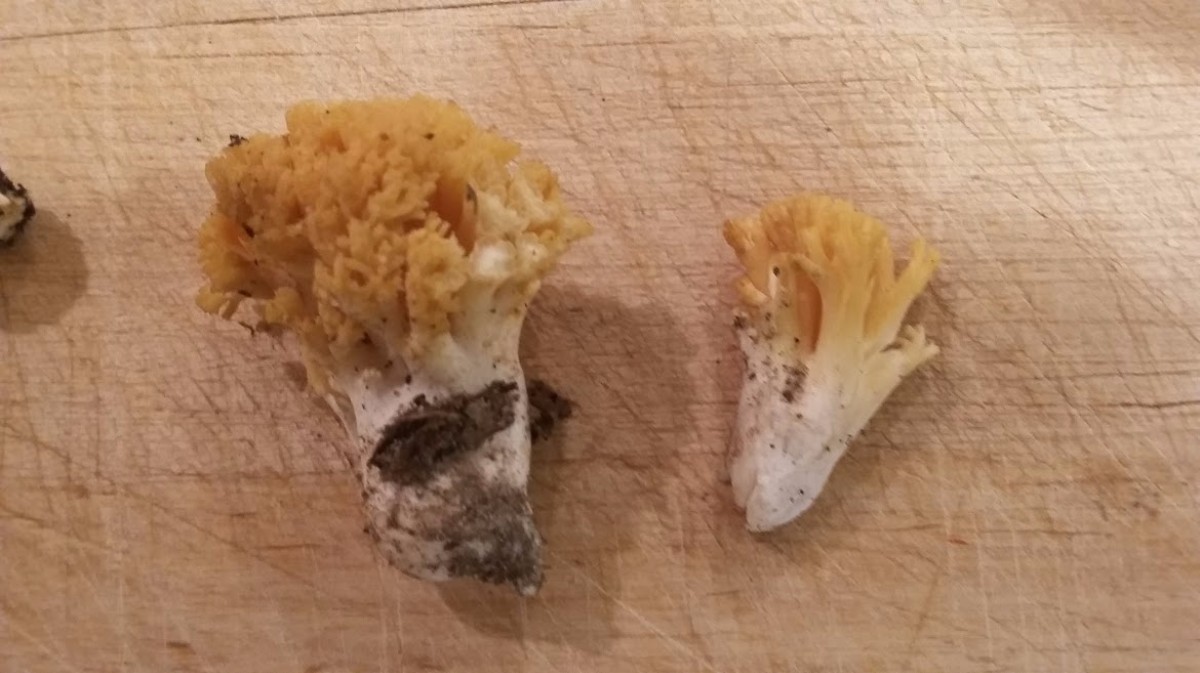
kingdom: Fungi
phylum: Basidiomycota
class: Agaricomycetes
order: Gomphales
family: Gomphaceae
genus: Ramaria
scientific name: Ramaria
